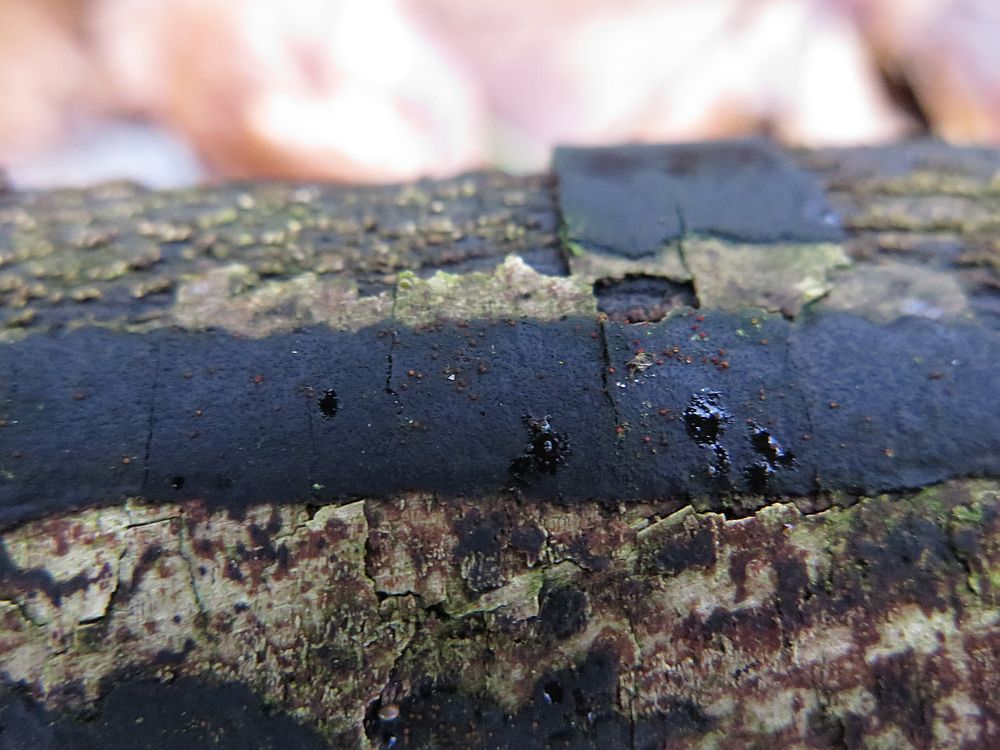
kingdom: Fungi
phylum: Ascomycota
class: Sordariomycetes
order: Xylariales
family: Diatrypaceae
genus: Diatrype
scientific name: Diatrype decorticata
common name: barksprænger-kulskorpe
